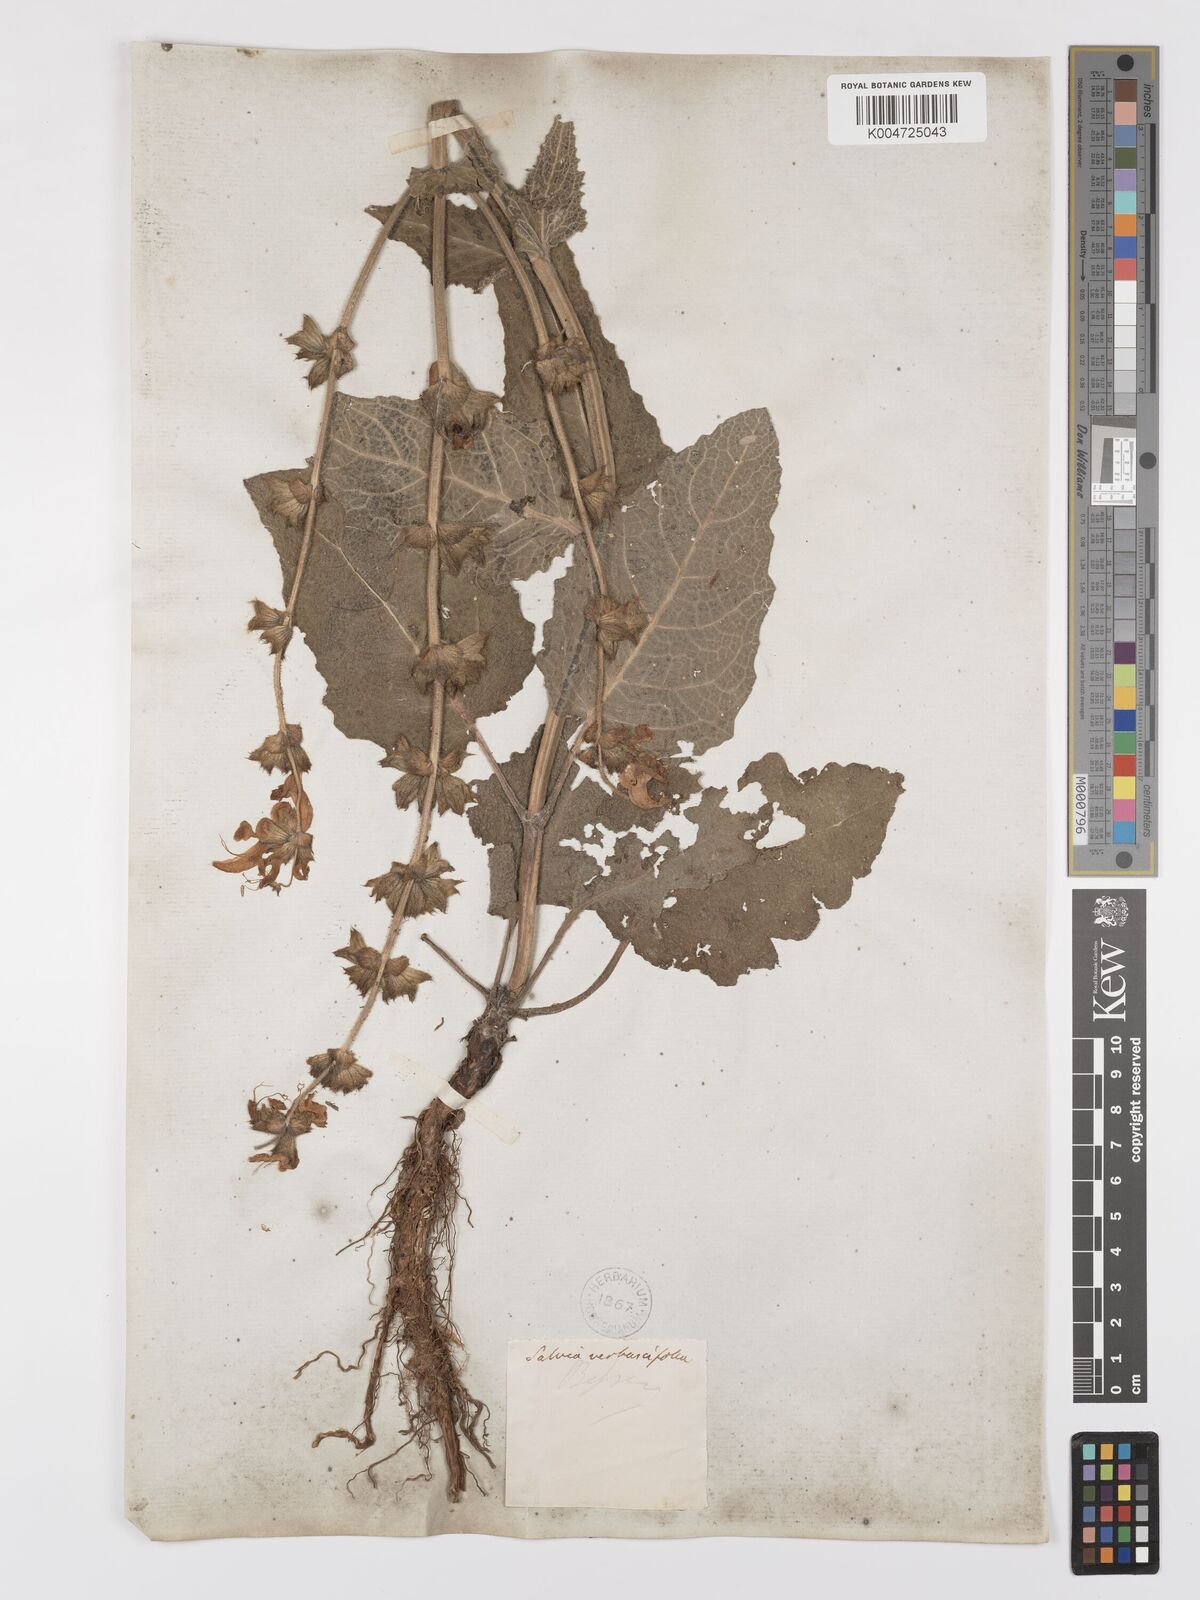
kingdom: Plantae
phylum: Tracheophyta
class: Magnoliopsida
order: Lamiales
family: Lamiaceae
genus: Salvia
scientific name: Salvia verbascifolia
